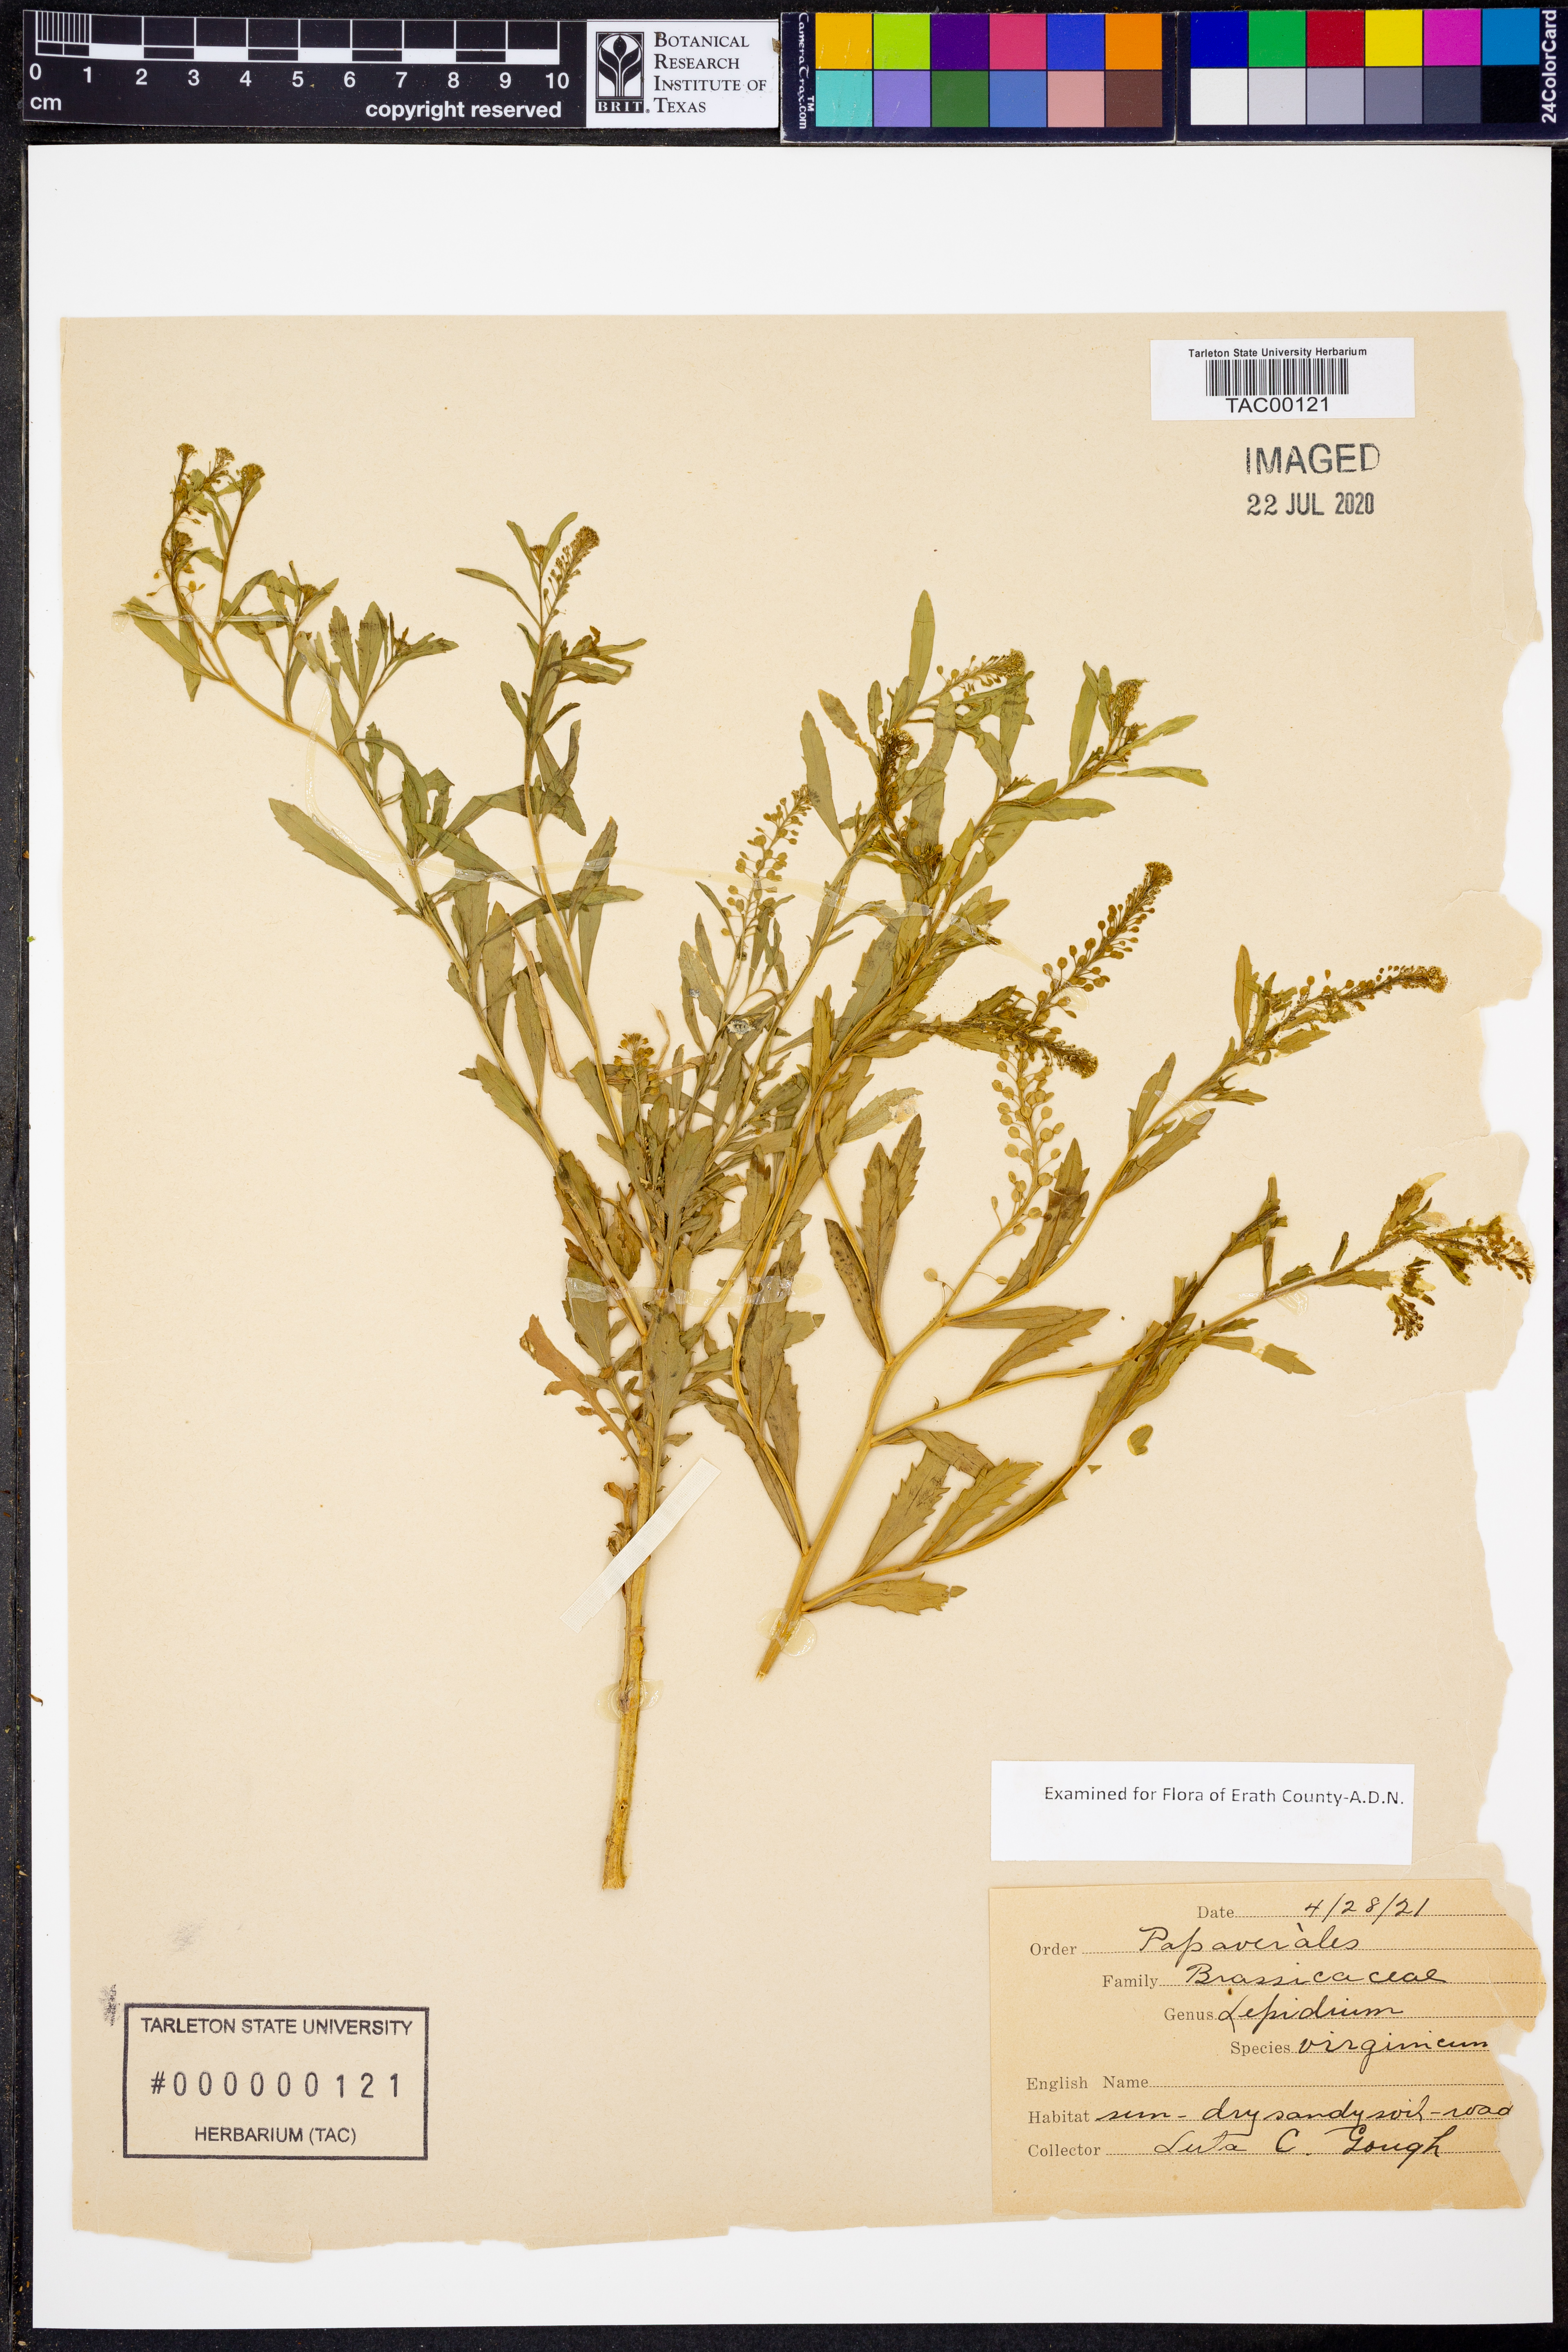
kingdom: Plantae
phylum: Tracheophyta
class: Magnoliopsida
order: Brassicales
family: Brassicaceae
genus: Lepidium
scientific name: Lepidium virginicum
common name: Least pepperwort
